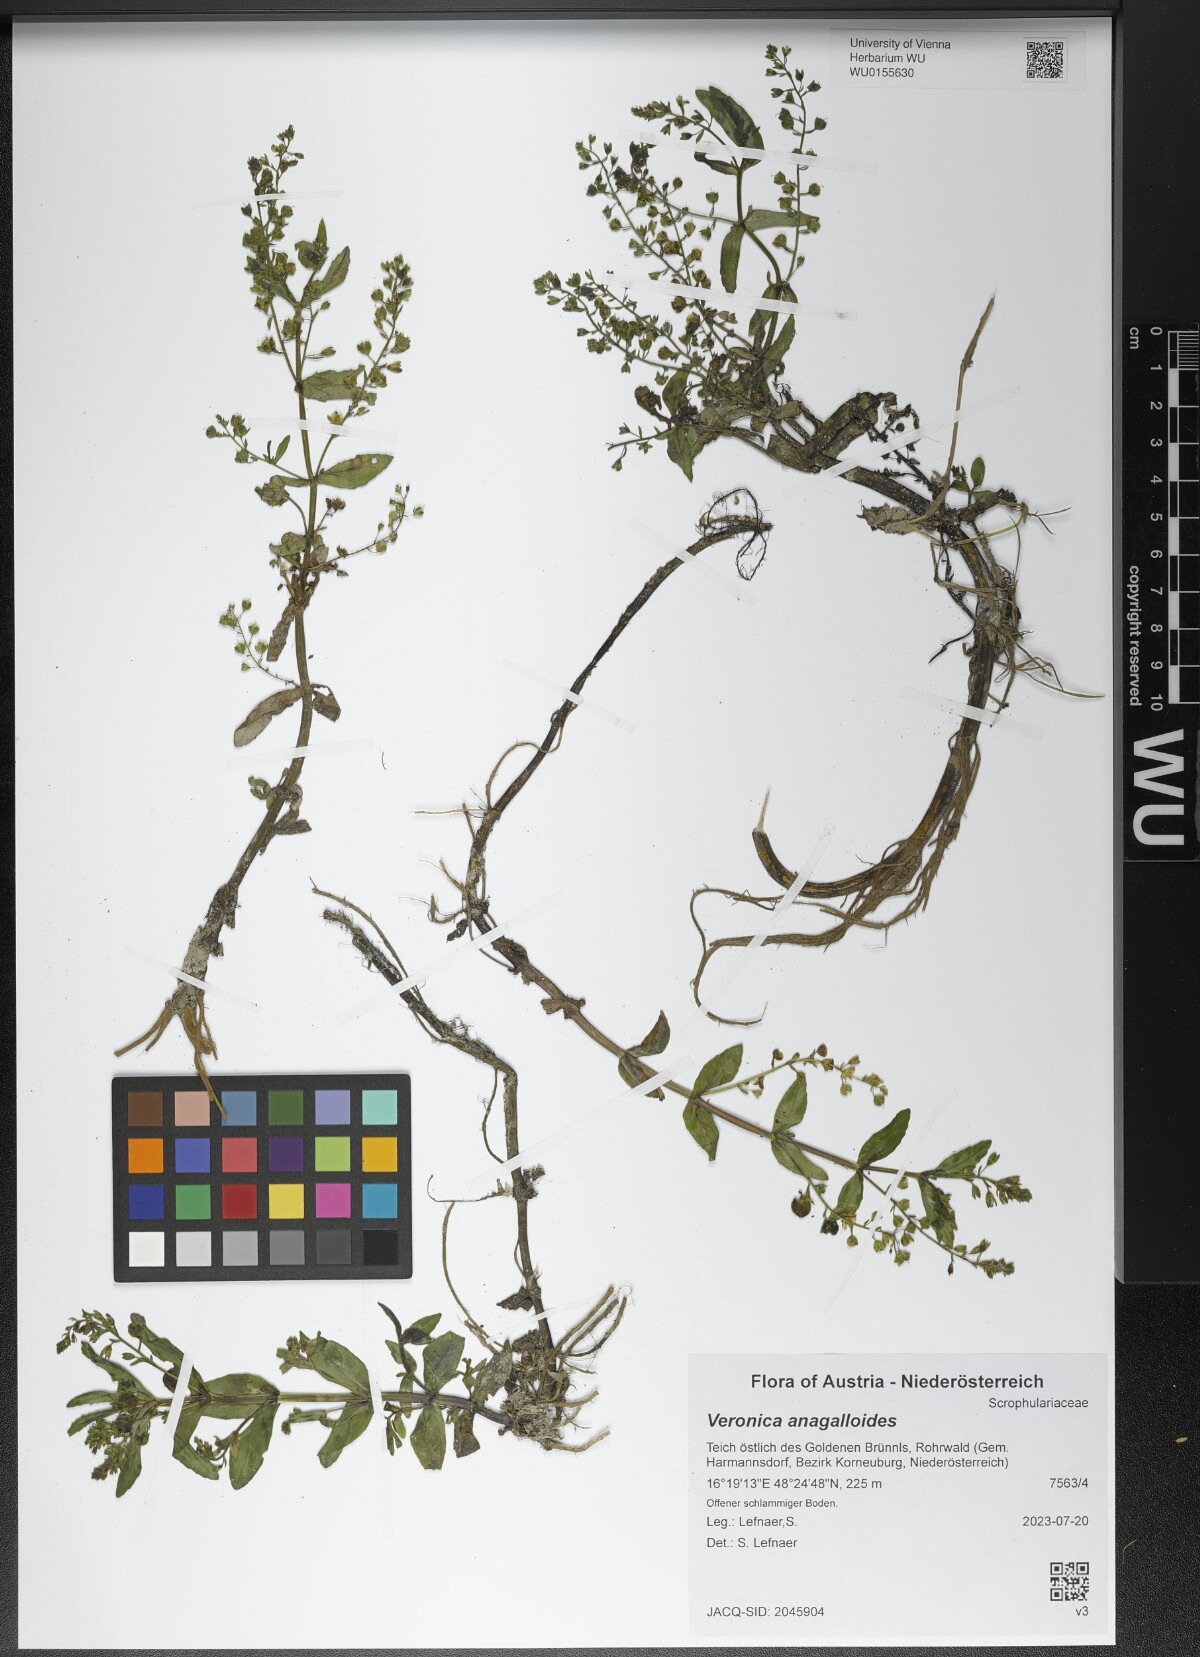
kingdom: Plantae
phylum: Tracheophyta
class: Magnoliopsida
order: Lamiales
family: Plantaginaceae
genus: Veronica
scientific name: Veronica anagalloides
